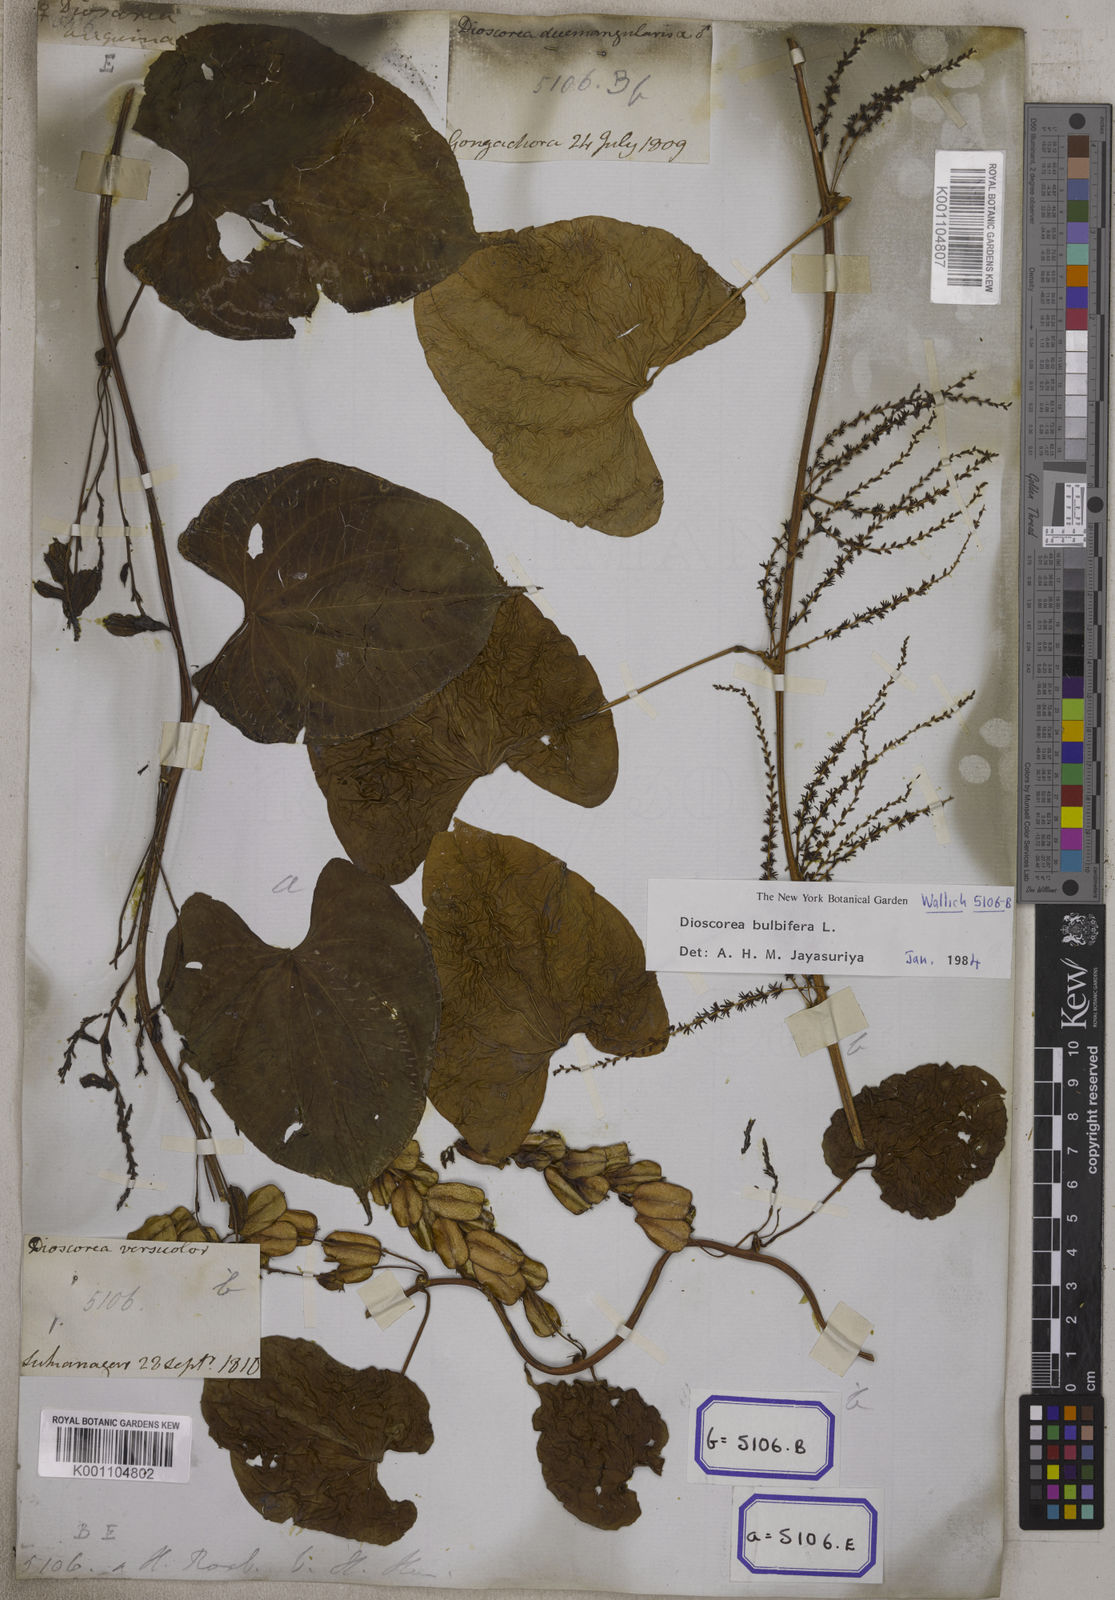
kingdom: Plantae
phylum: Tracheophyta
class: Liliopsida
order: Dioscoreales
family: Dioscoreaceae
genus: Dioscorea
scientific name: Dioscorea
